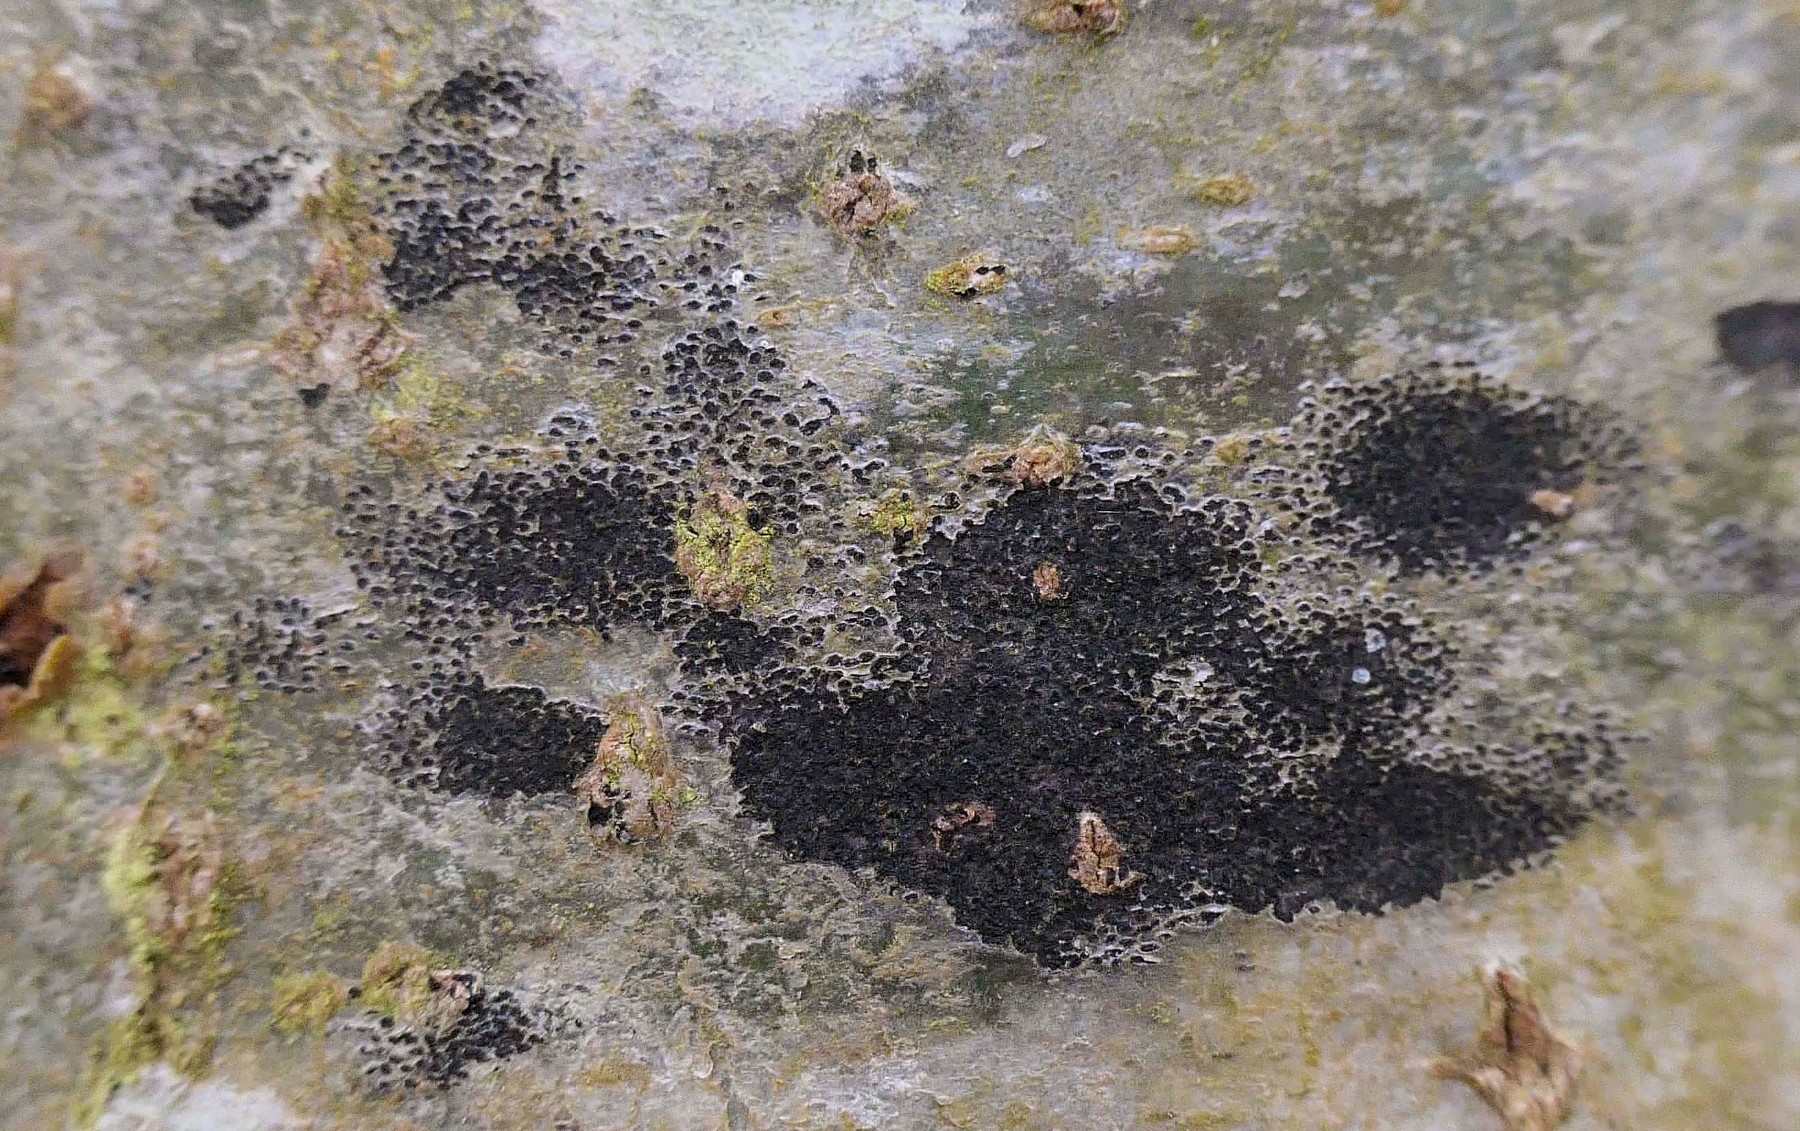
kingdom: Fungi
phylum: Ascomycota
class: Leotiomycetes
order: Rhytismatales
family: Ascodichaenaceae
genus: Ascodichaena
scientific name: Ascodichaena rugosa
